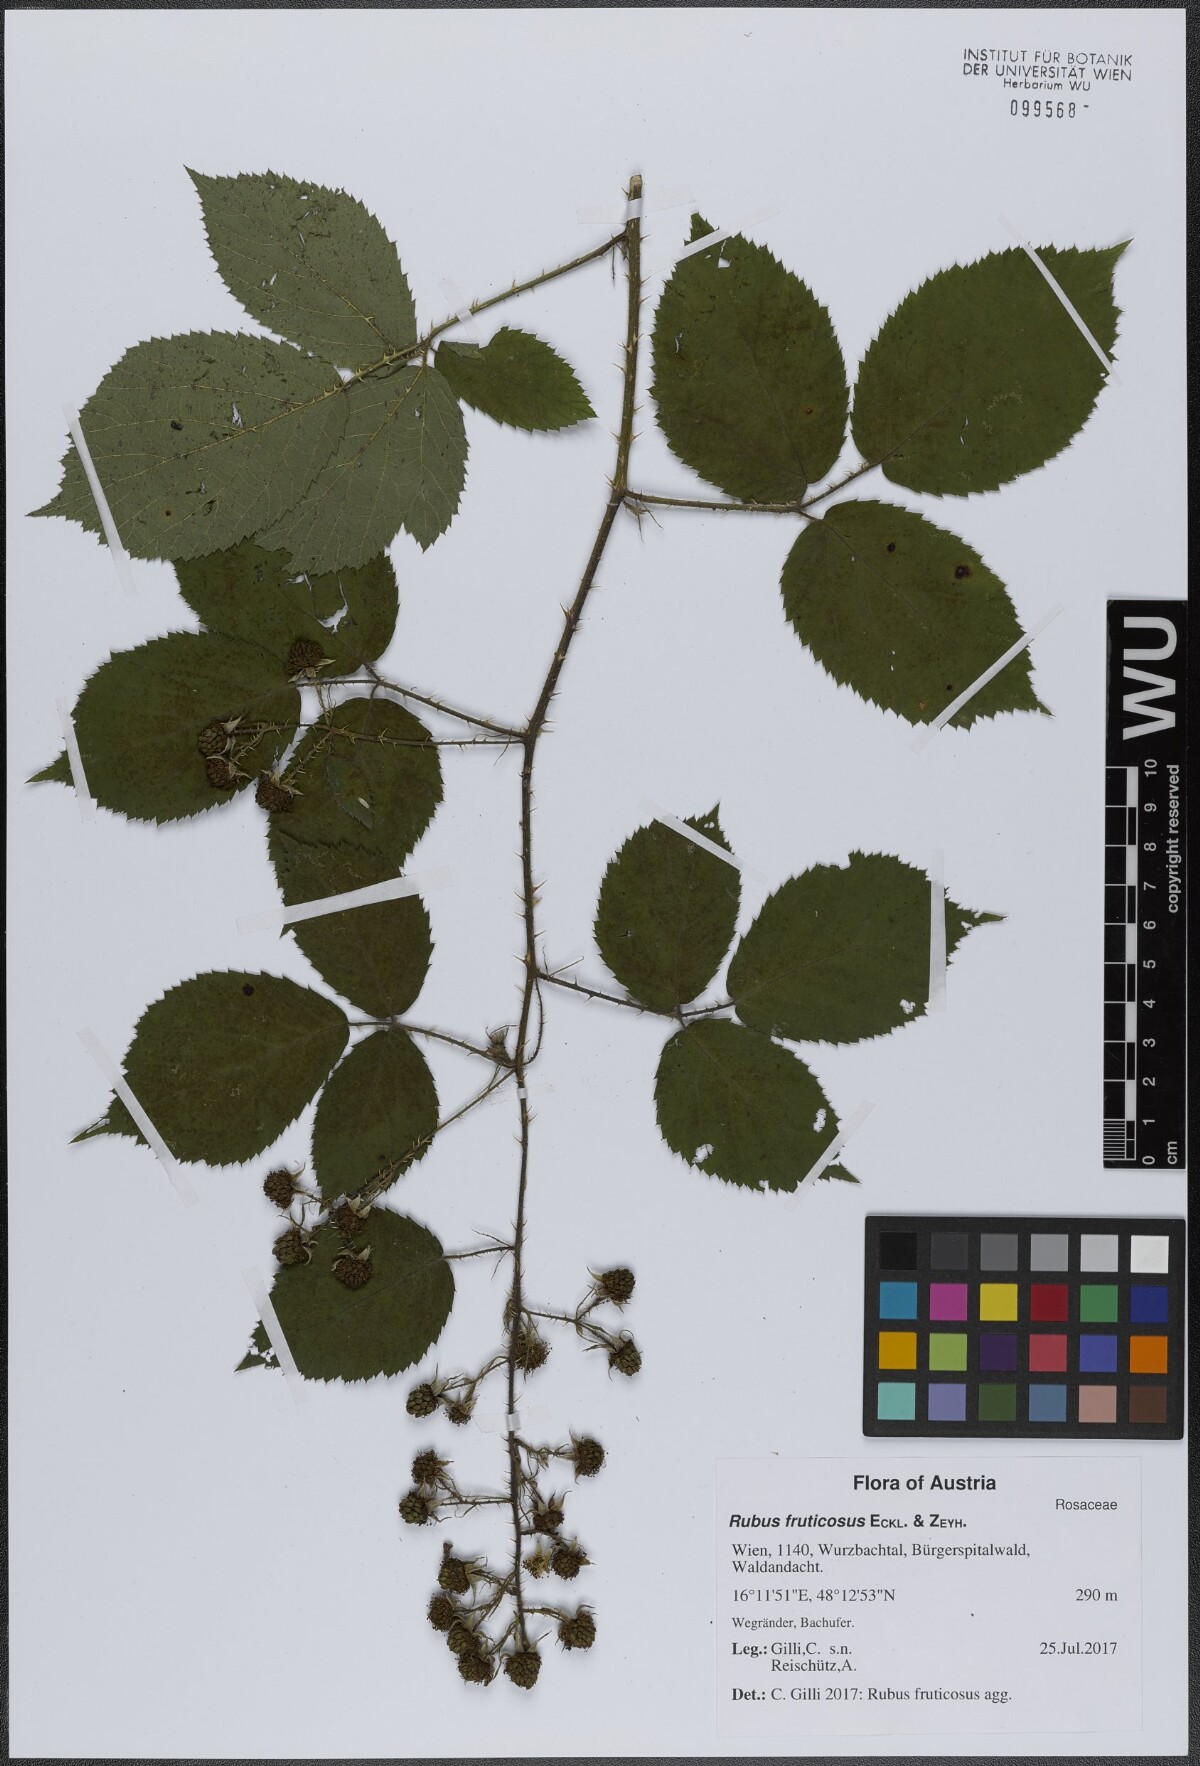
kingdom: Plantae
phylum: Tracheophyta
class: Magnoliopsida
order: Rosales
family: Rosaceae
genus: Rubus
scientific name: Rubus fruticosus
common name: Blackberry, bramble
